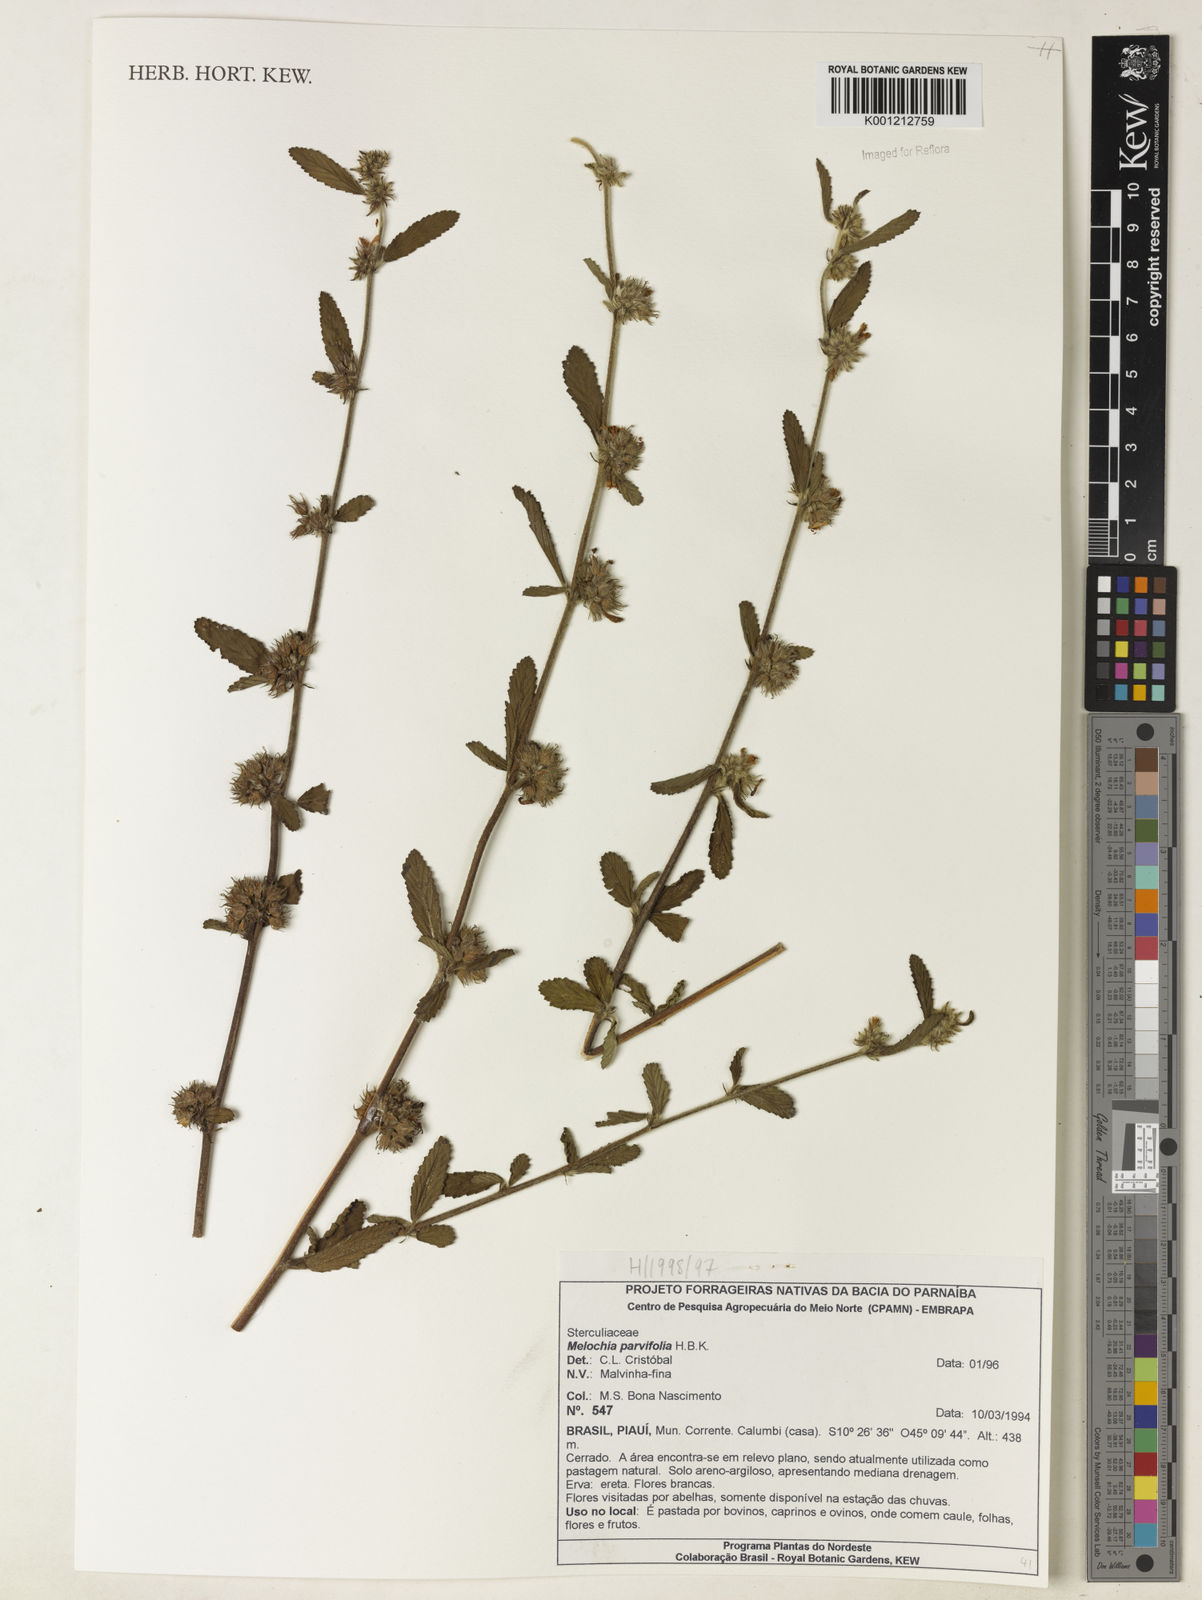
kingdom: Plantae
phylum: Tracheophyta
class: Magnoliopsida
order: Malvales
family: Malvaceae
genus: Melochia
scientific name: Melochia parvifolia
